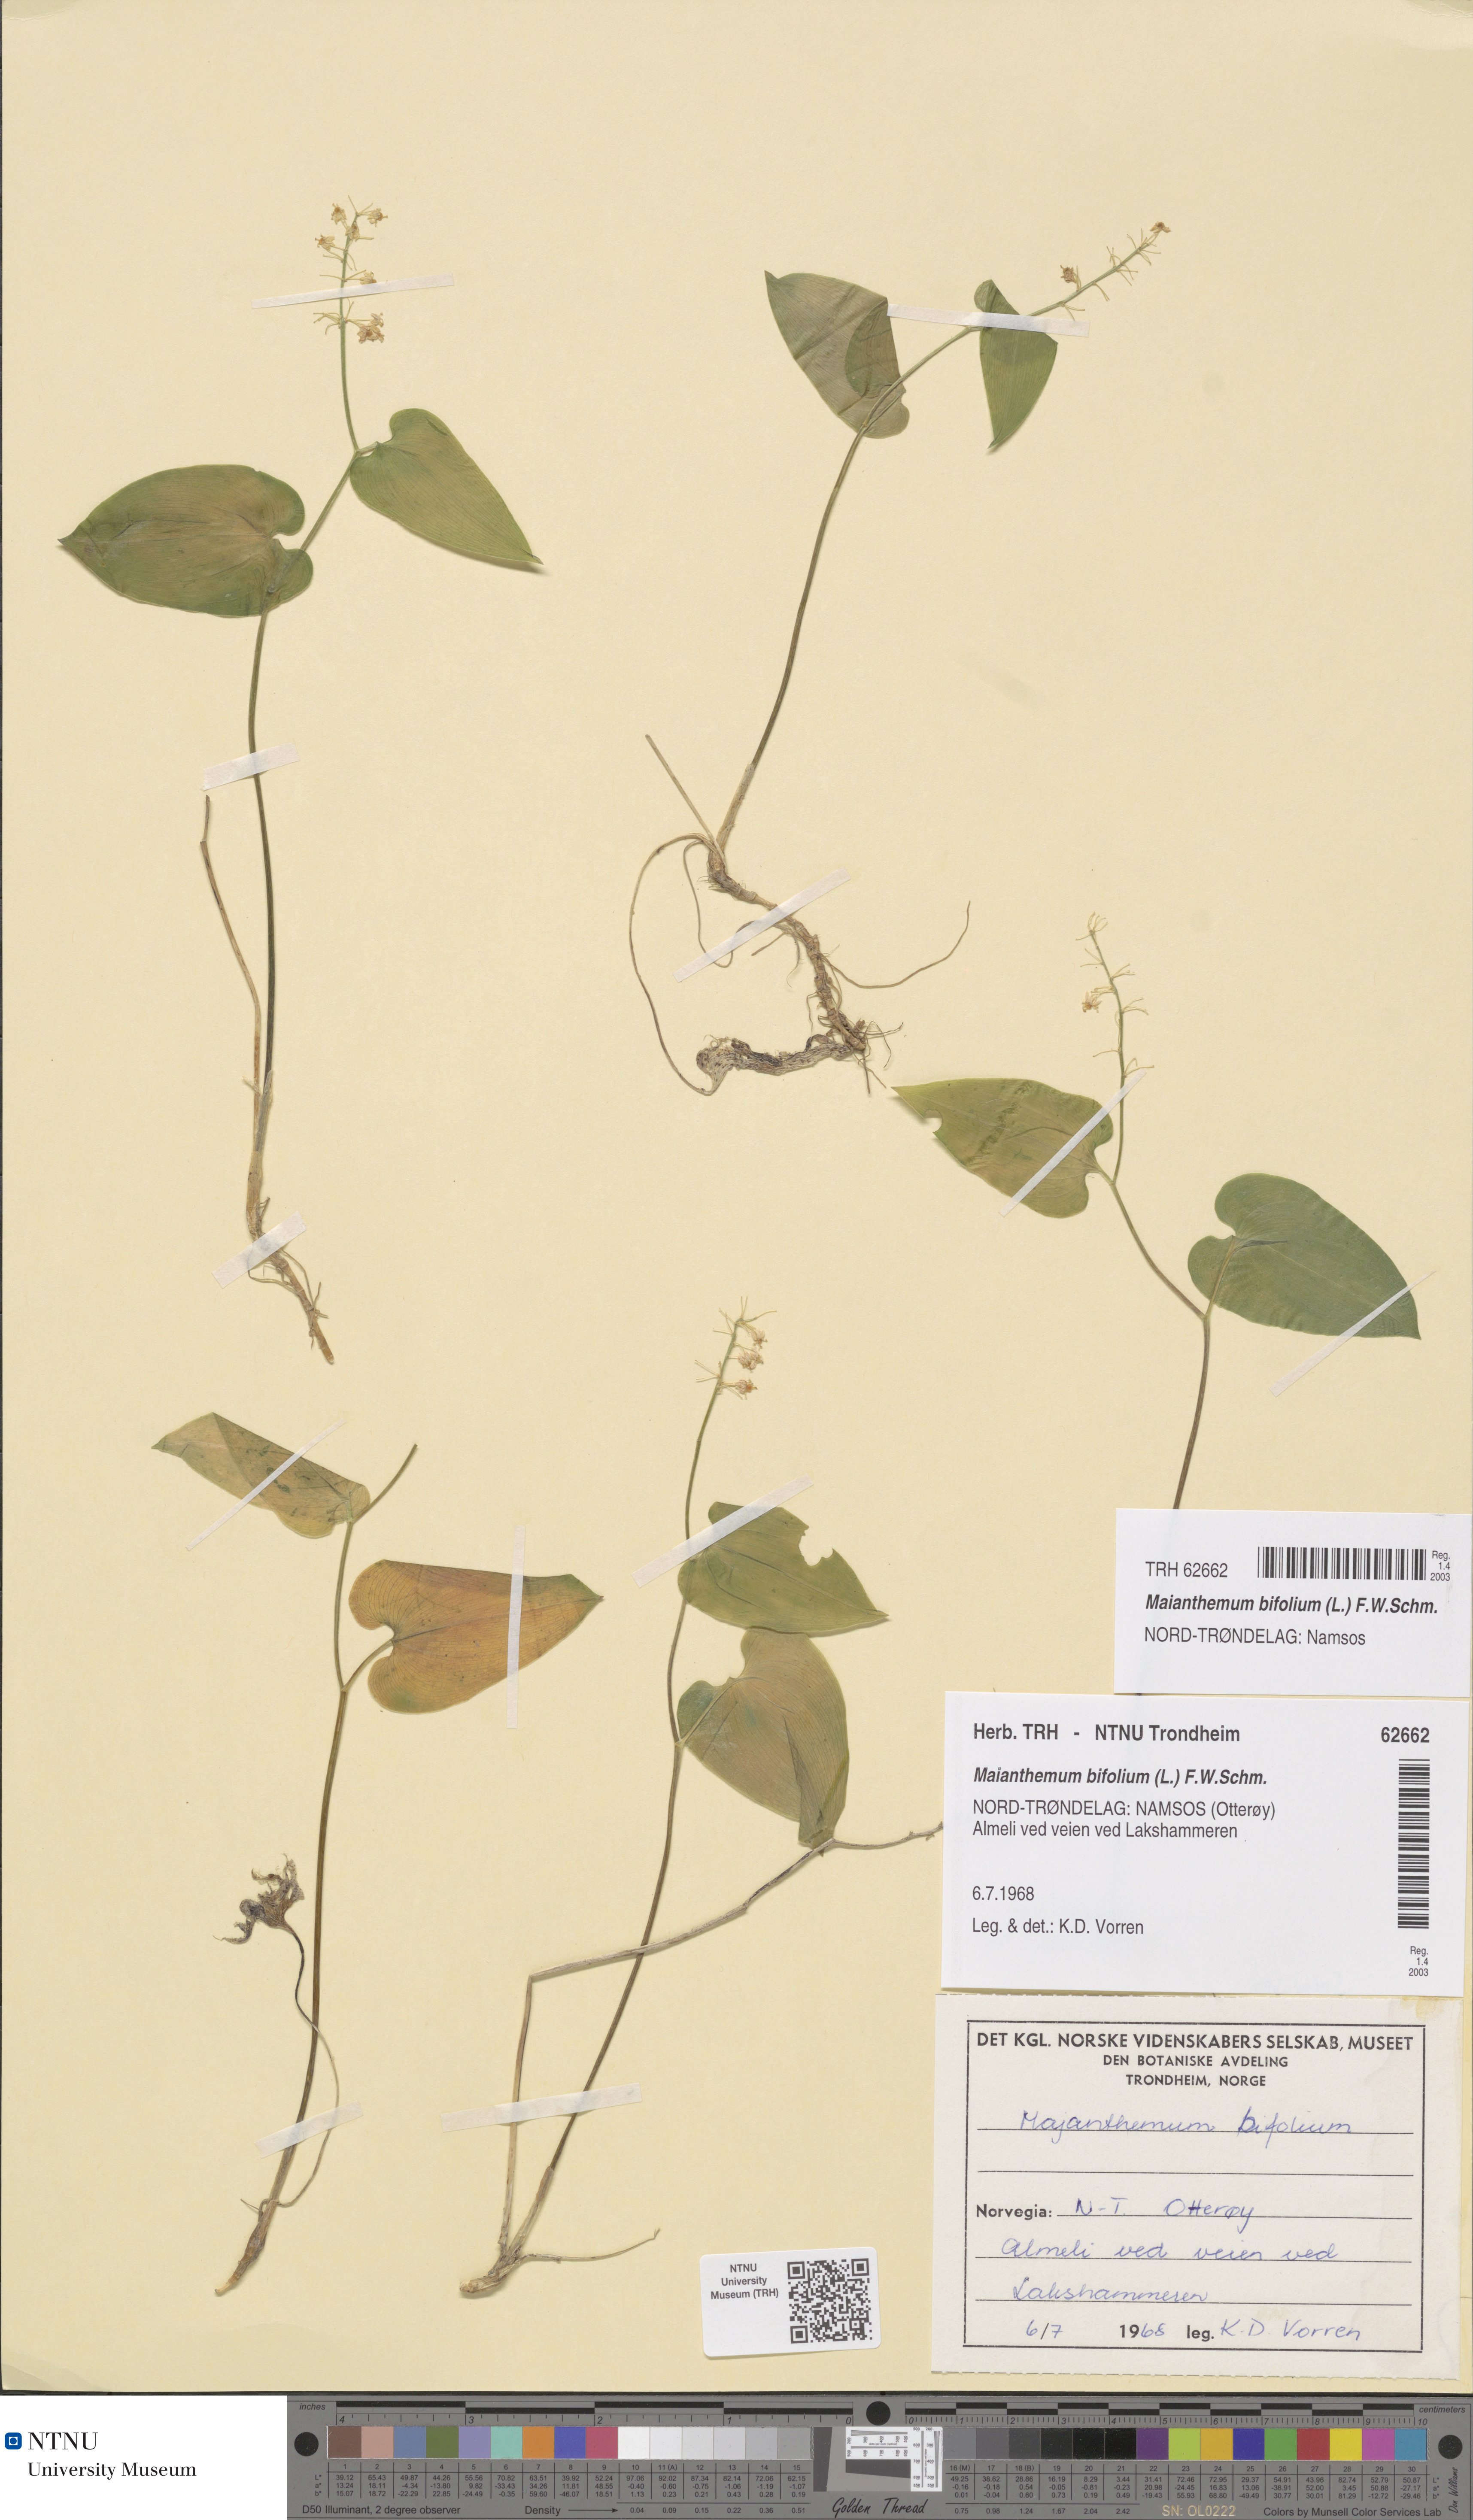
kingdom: Plantae
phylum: Tracheophyta
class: Liliopsida
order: Asparagales
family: Asparagaceae
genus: Maianthemum
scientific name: Maianthemum bifolium
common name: May lily
